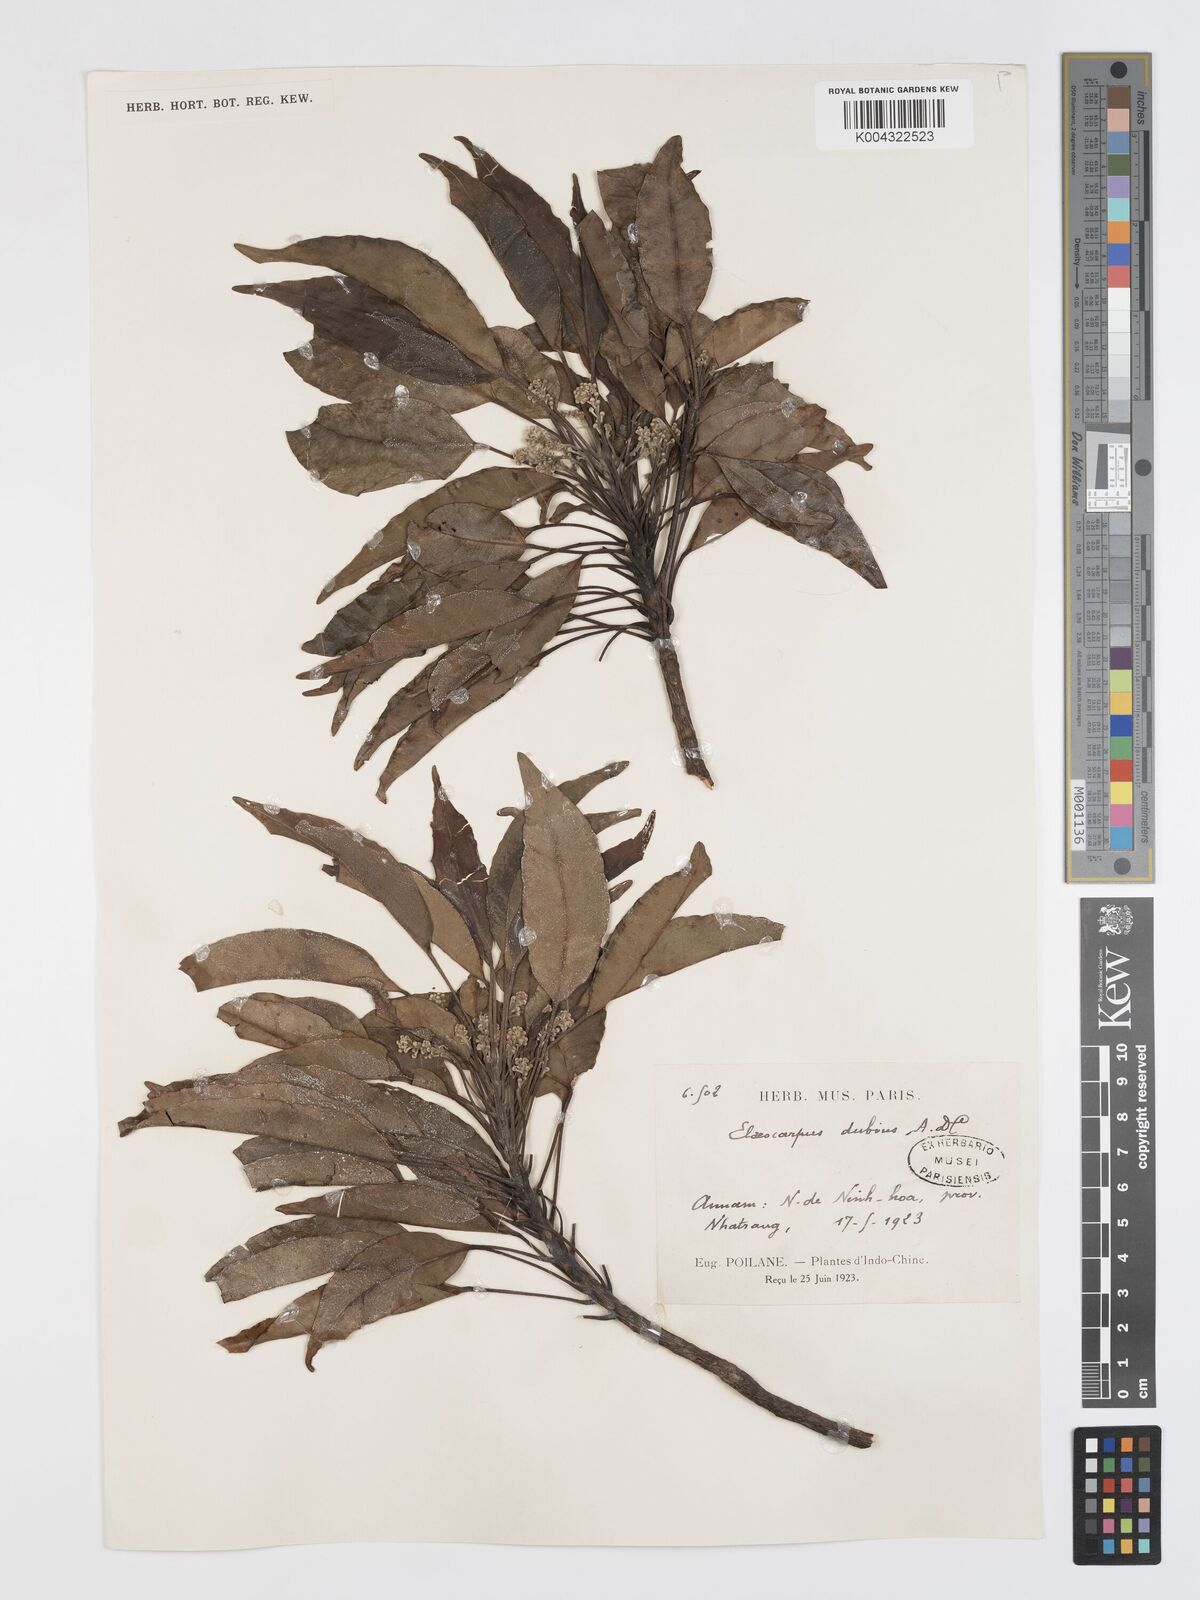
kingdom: Plantae
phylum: Tracheophyta
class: Magnoliopsida
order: Oxalidales
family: Elaeocarpaceae
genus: Elaeocarpus
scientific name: Elaeocarpus dubius
